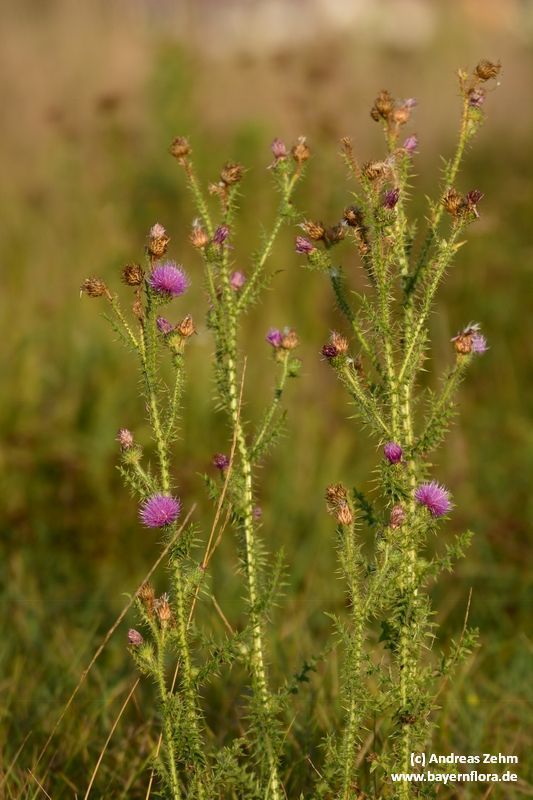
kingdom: Plantae
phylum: Tracheophyta
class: Magnoliopsida
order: Asterales
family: Asteraceae
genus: Carduus
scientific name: Carduus acanthoides
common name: Plumeless thistle
